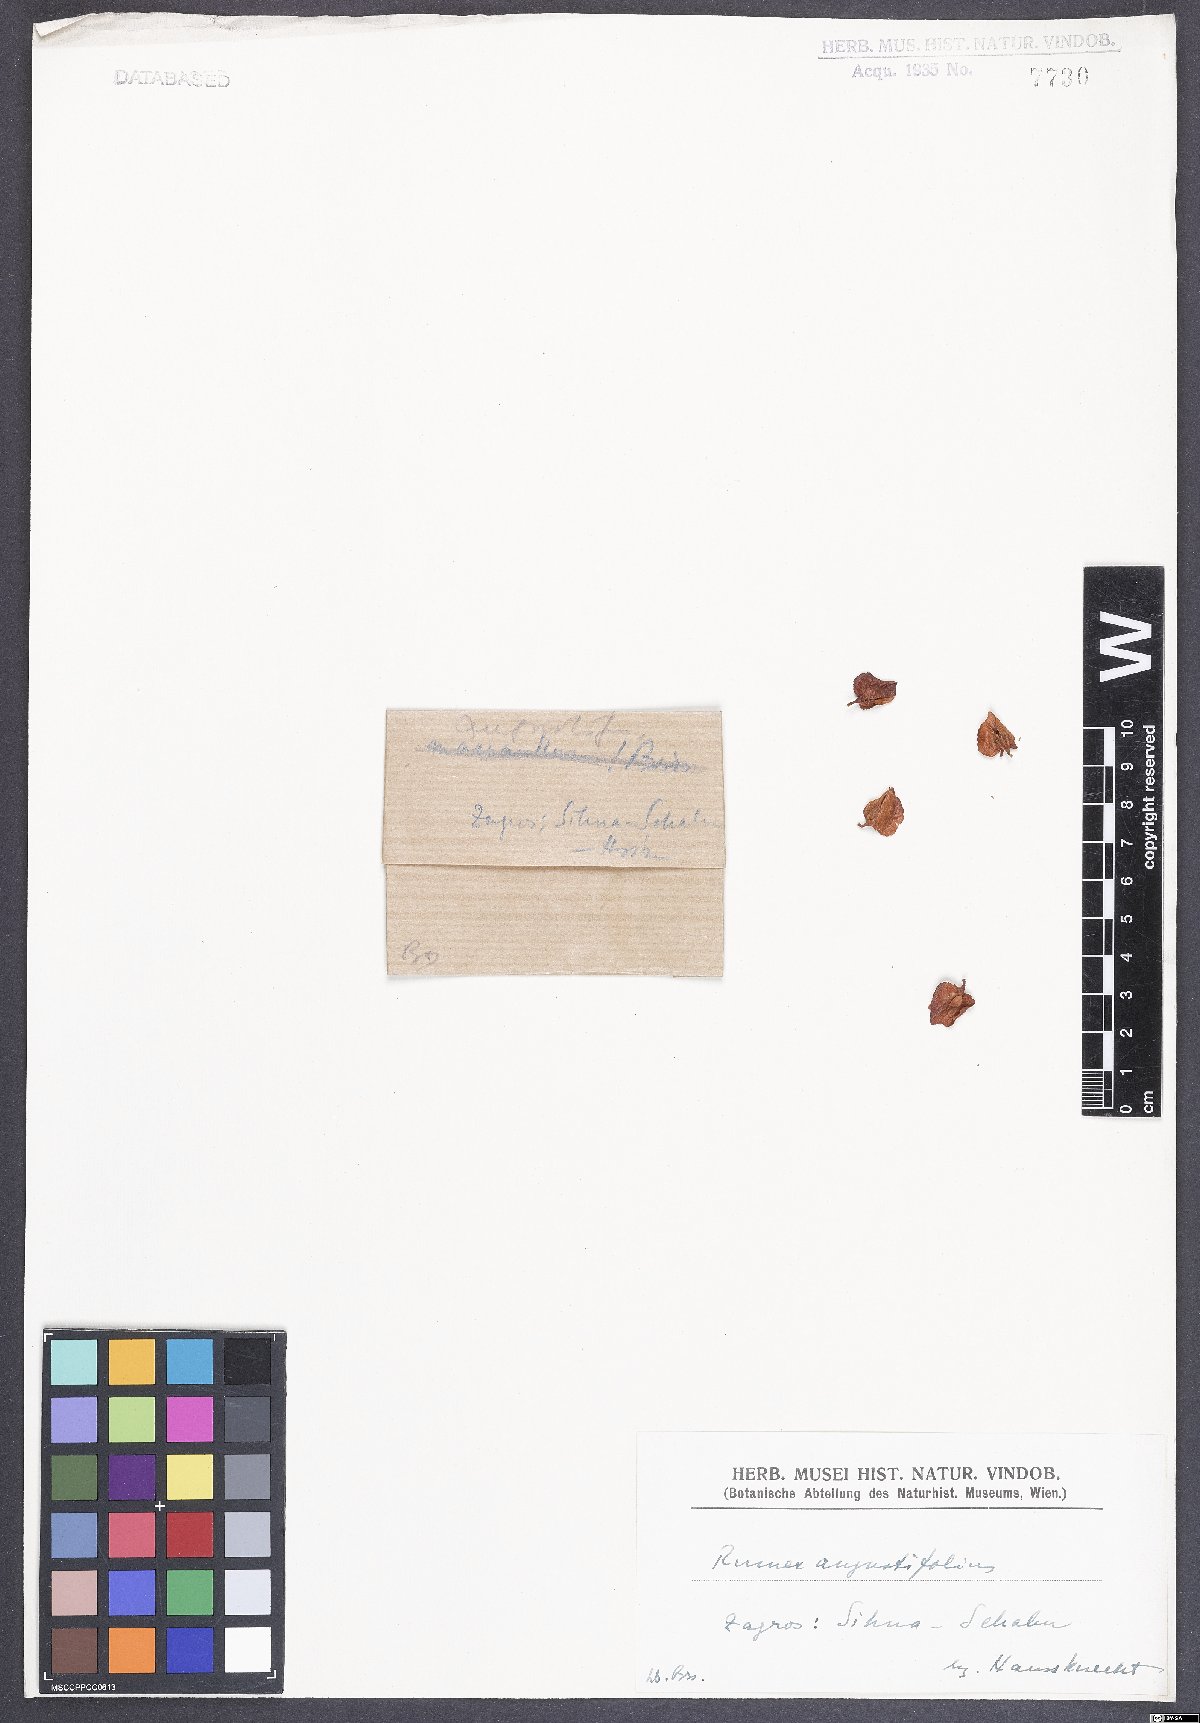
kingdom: Plantae
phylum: Tracheophyta
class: Magnoliopsida
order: Caryophyllales
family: Polygonaceae
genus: Rumex
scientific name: Rumex angustifolius
